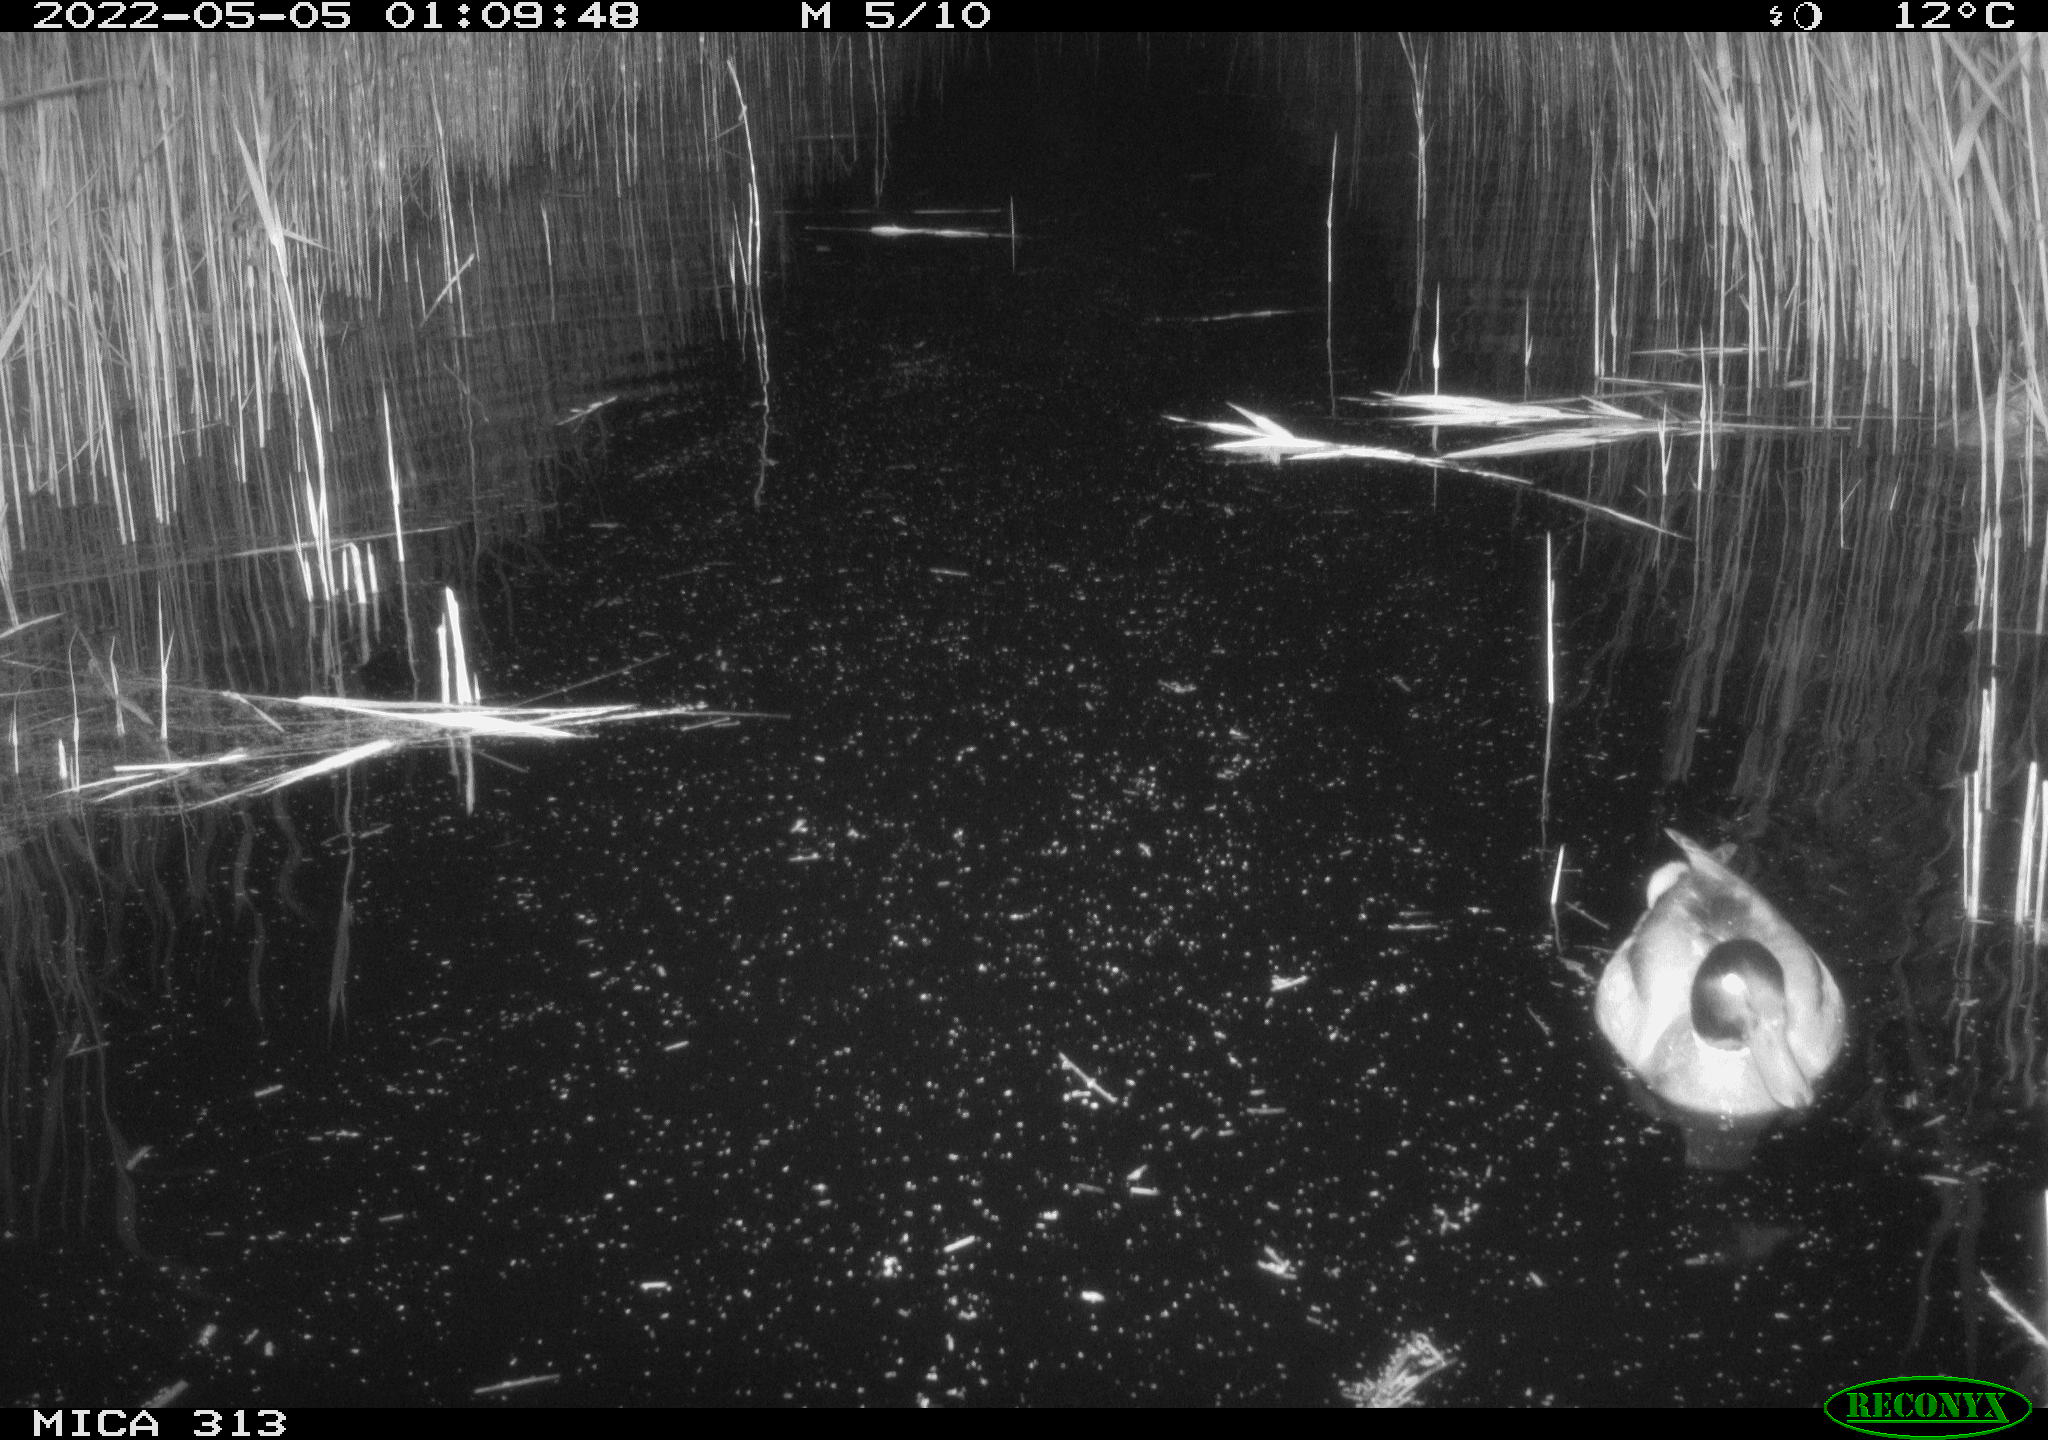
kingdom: Animalia
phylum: Chordata
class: Aves
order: Gruiformes
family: Rallidae
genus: Gallinula
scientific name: Gallinula chloropus
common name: Common moorhen
